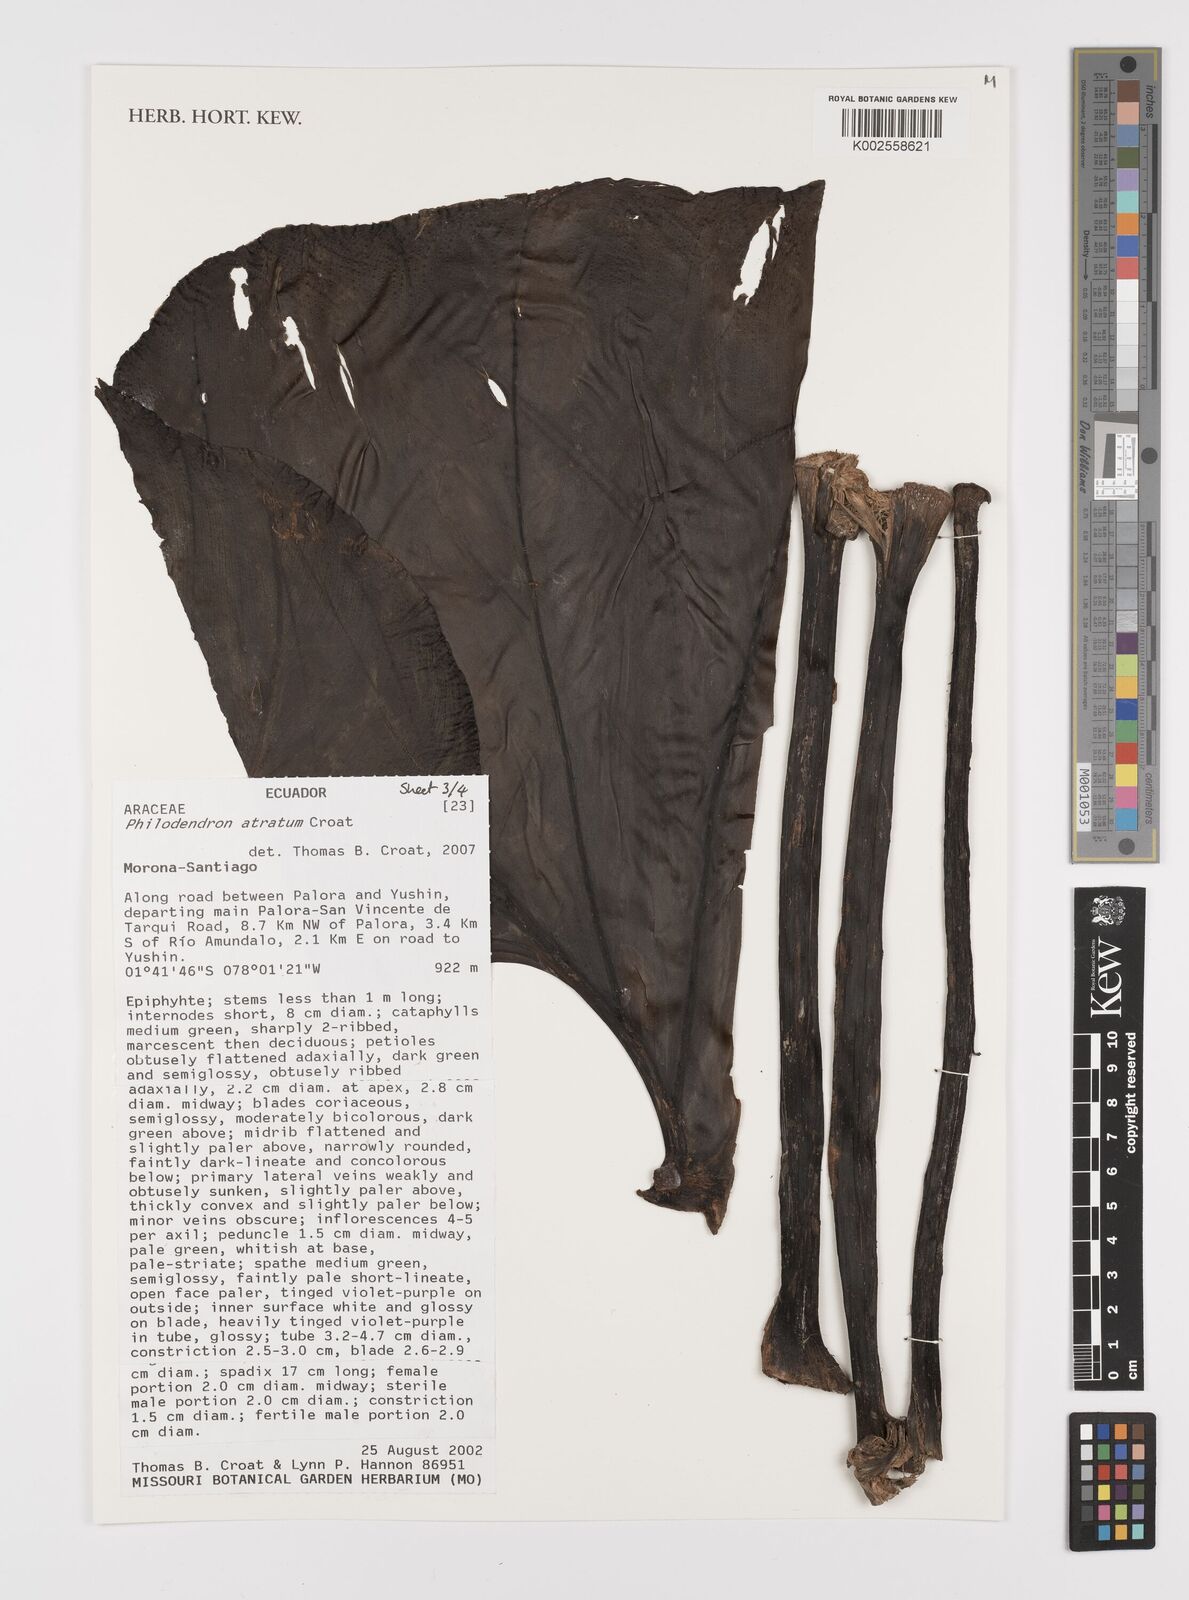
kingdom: Plantae
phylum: Tracheophyta
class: Liliopsida
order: Alismatales
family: Araceae
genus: Philodendron
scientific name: Philodendron atratum
